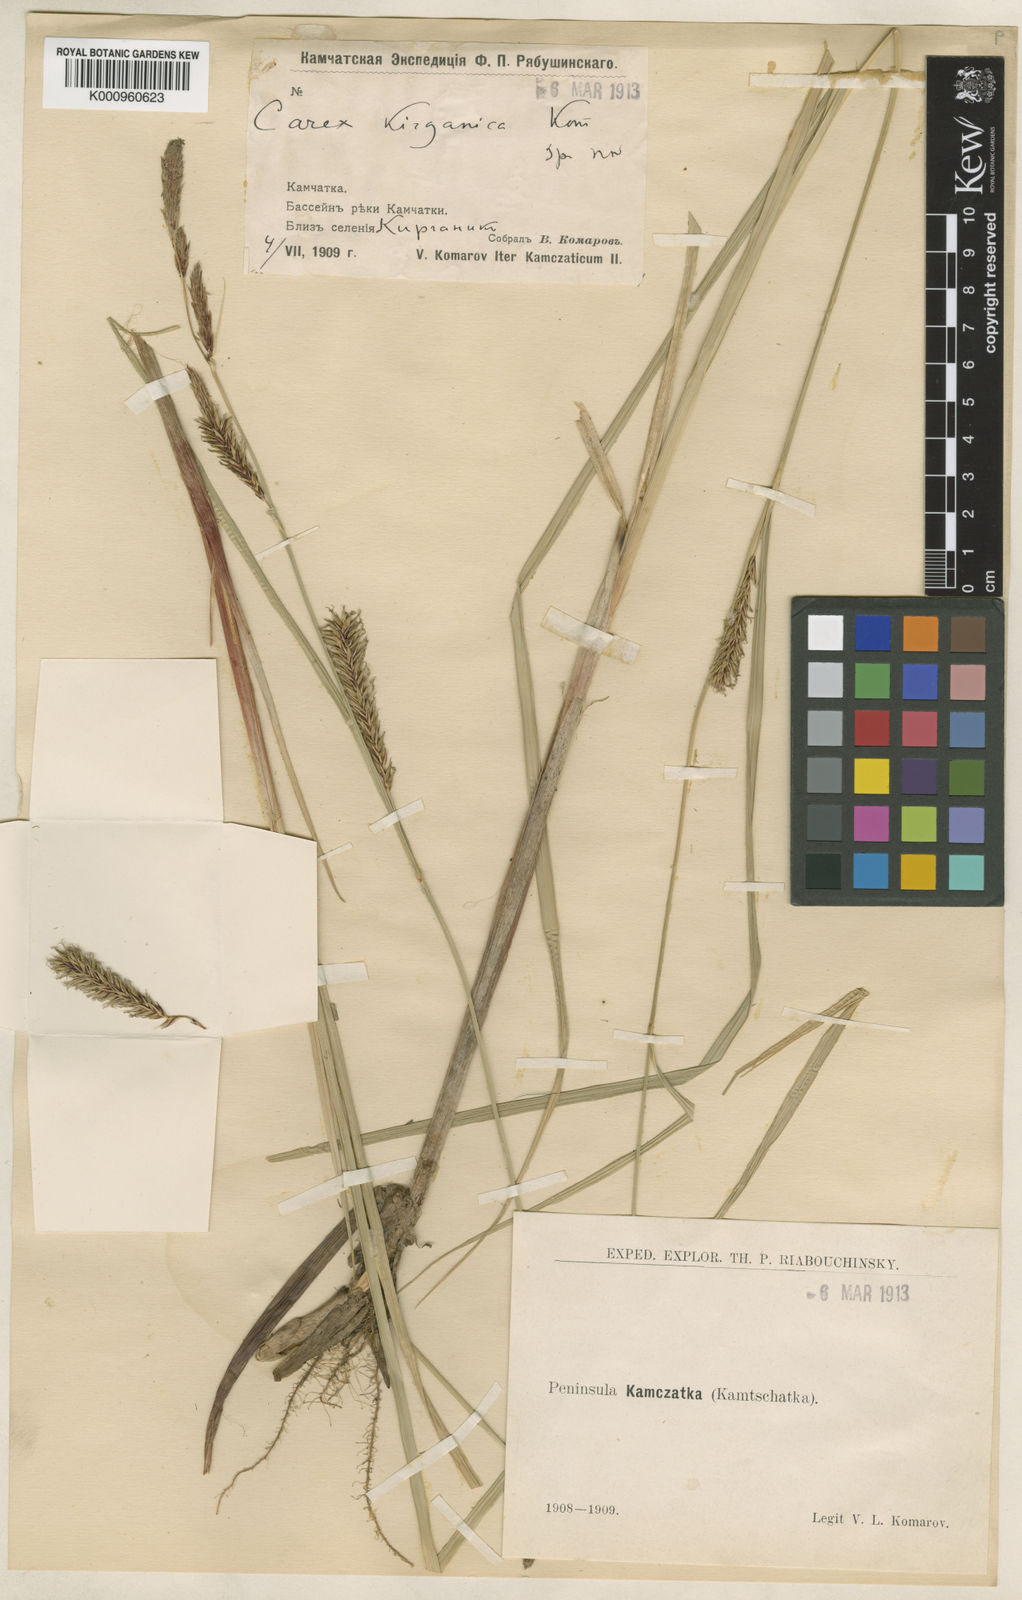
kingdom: Plantae
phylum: Tracheophyta
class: Liliopsida
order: Poales
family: Cyperaceae
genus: Carex
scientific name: Carex kirganica
